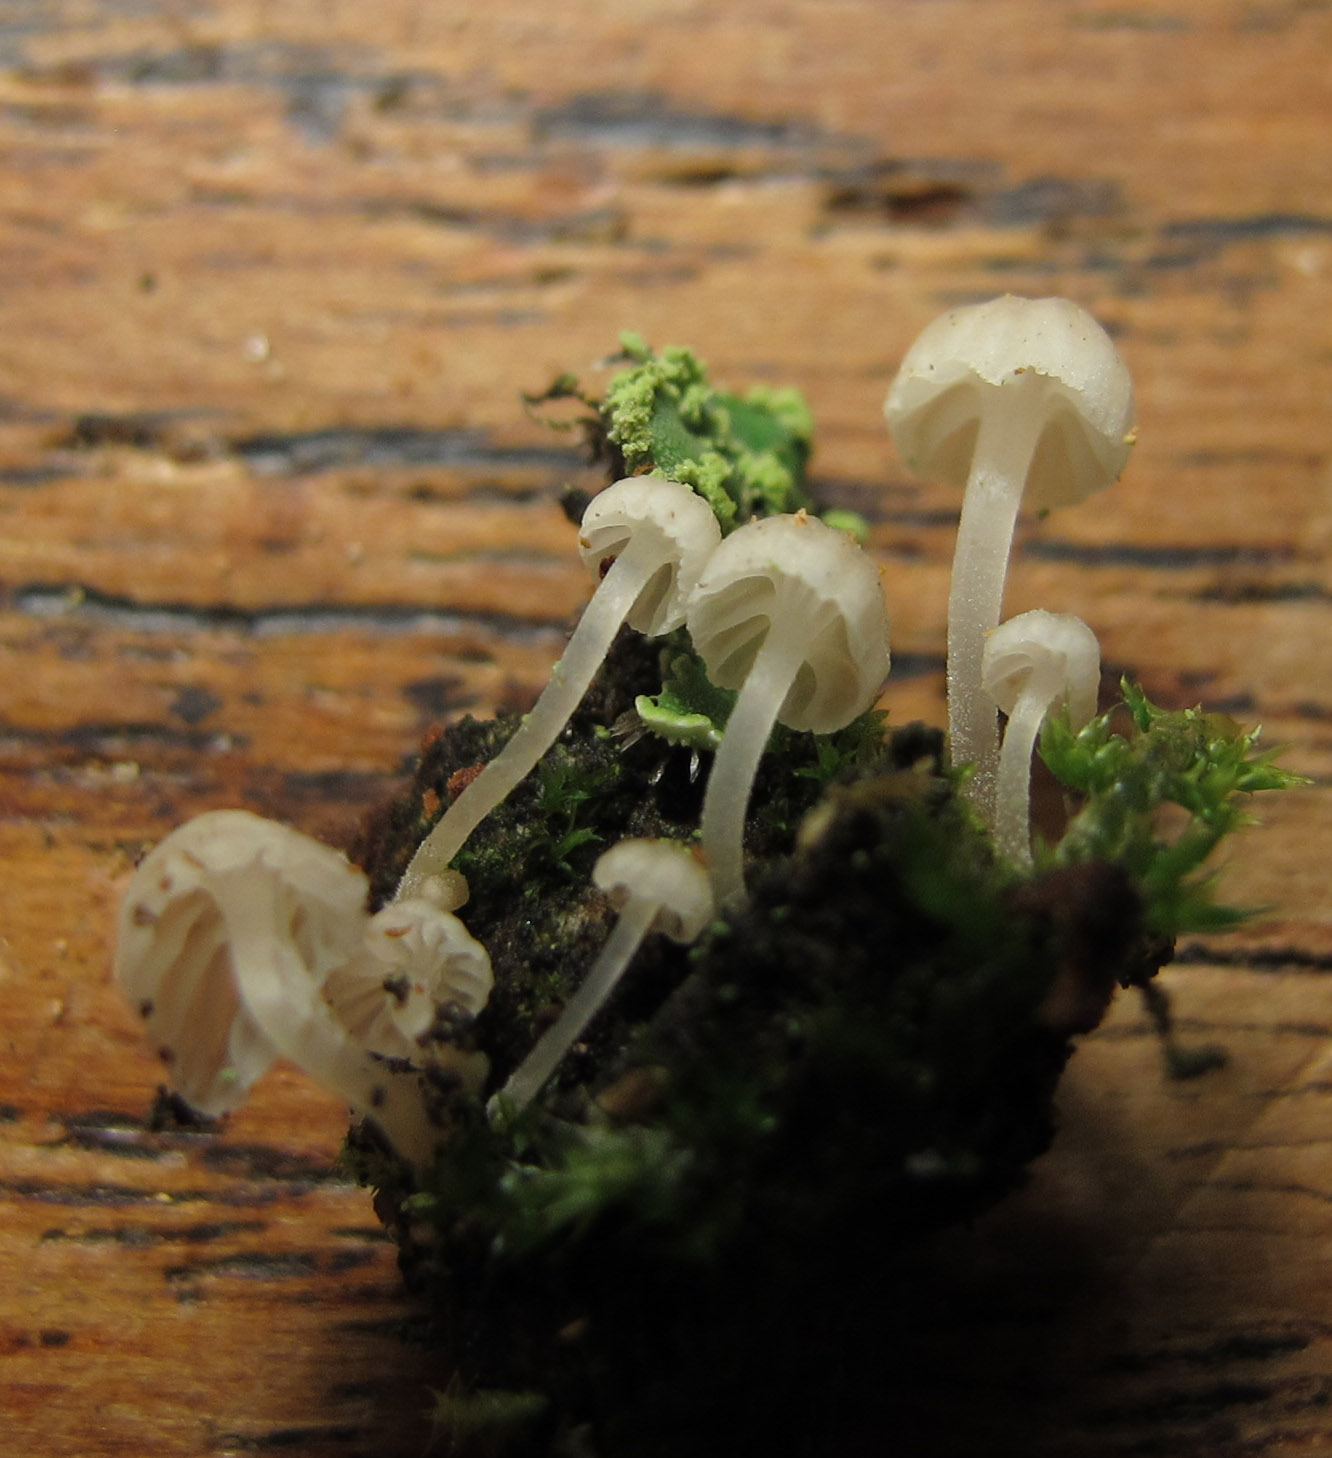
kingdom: Fungi
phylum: Basidiomycota
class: Agaricomycetes
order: Agaricales
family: Porotheleaceae
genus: Phloeomana
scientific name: Phloeomana alba
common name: hvidlig huesvamp
